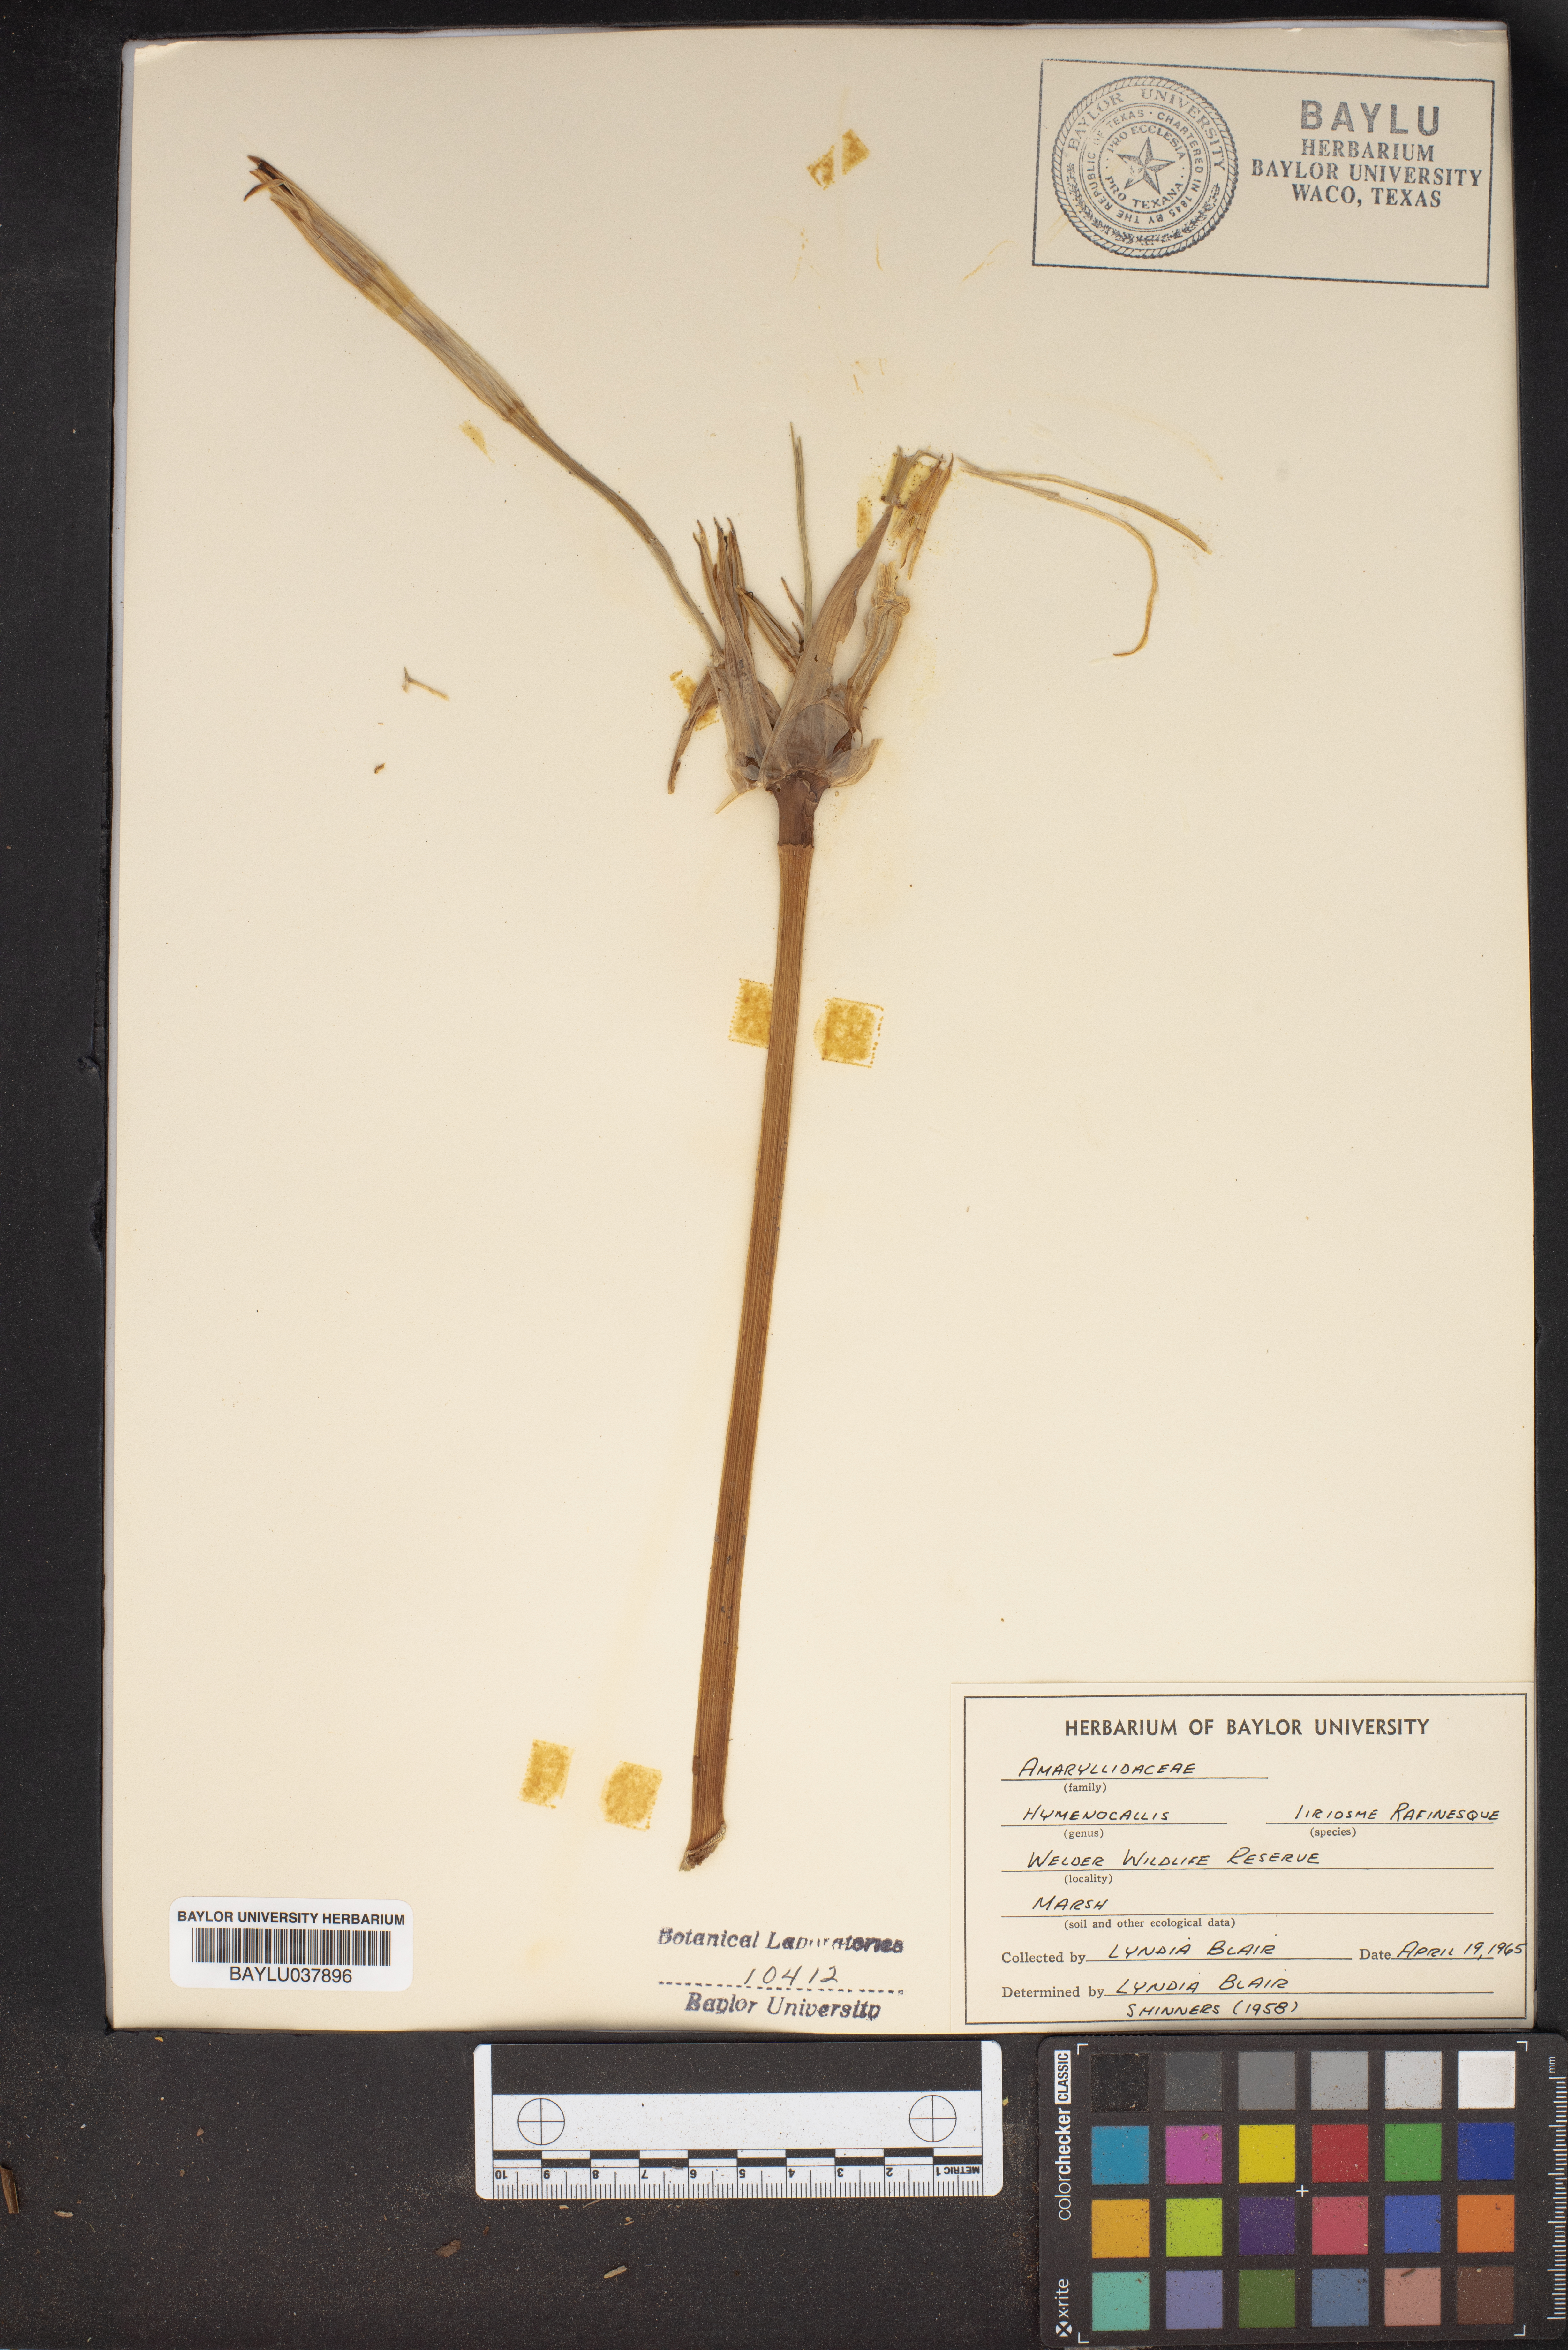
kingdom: Plantae
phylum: Tracheophyta
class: Liliopsida
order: Asparagales
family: Amaryllidaceae
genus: Hymenocallis
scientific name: Hymenocallis liriosme
